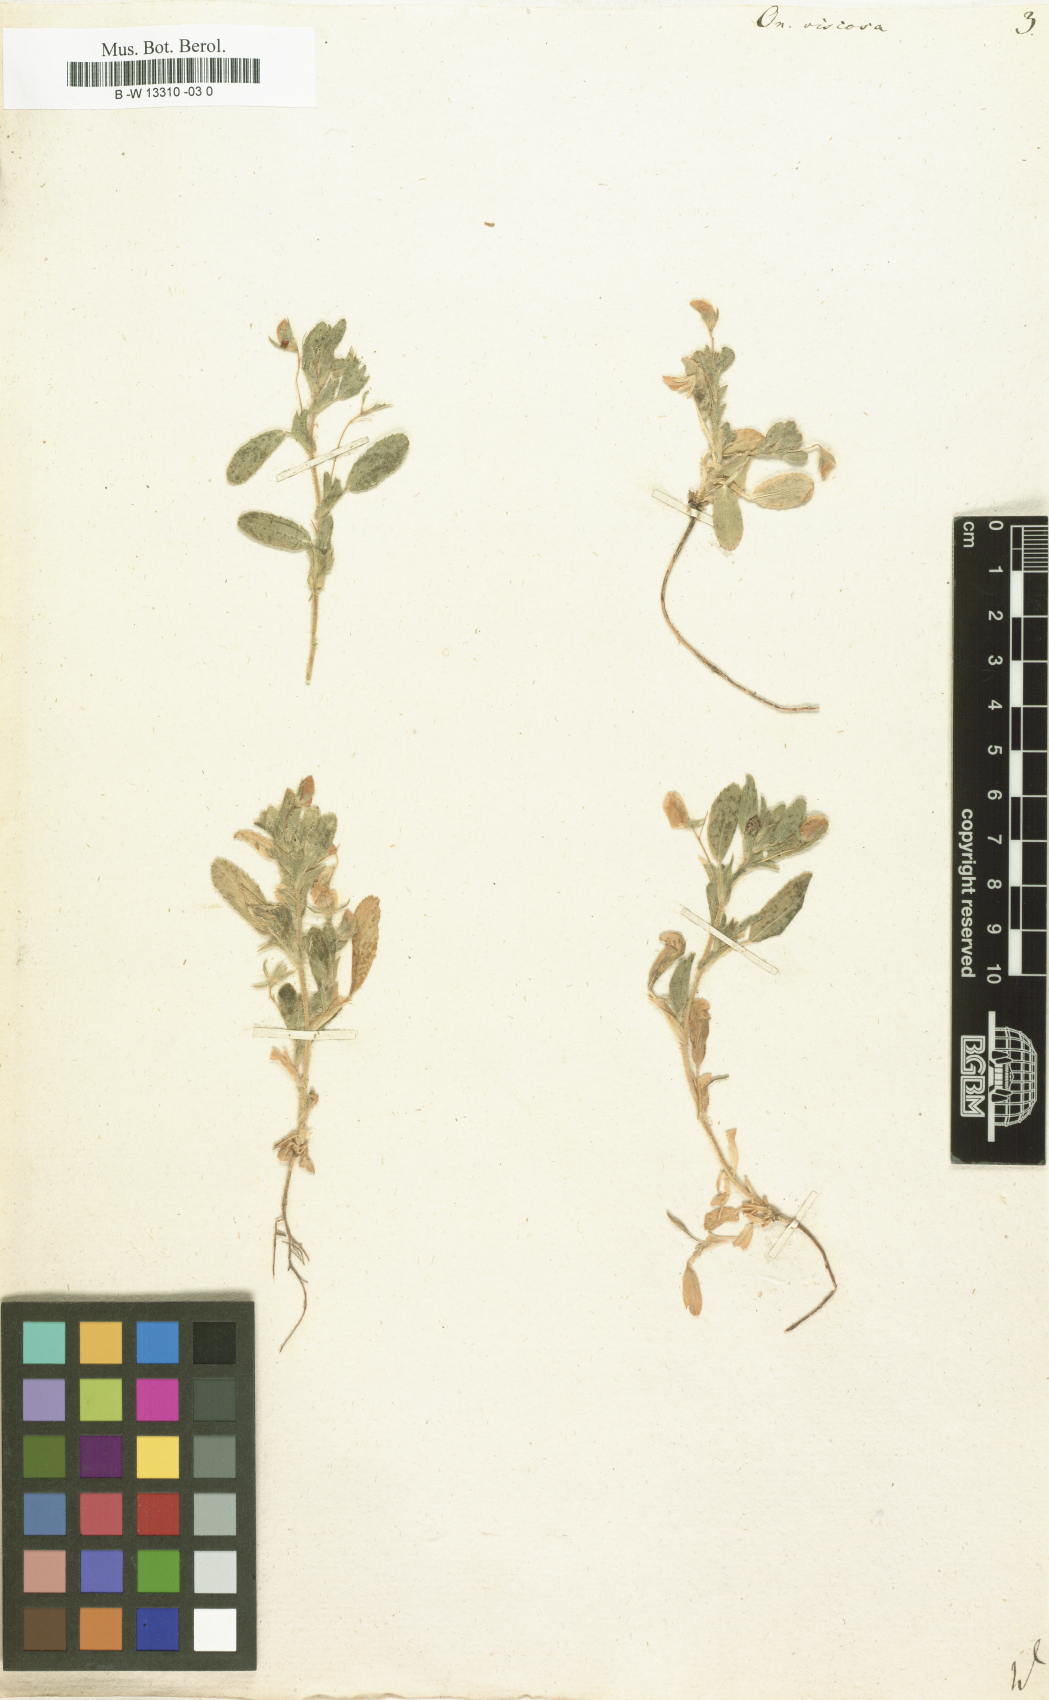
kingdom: Plantae
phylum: Tracheophyta
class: Magnoliopsida
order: Fabales
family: Fabaceae
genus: Ononis
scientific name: Ononis viscosa
